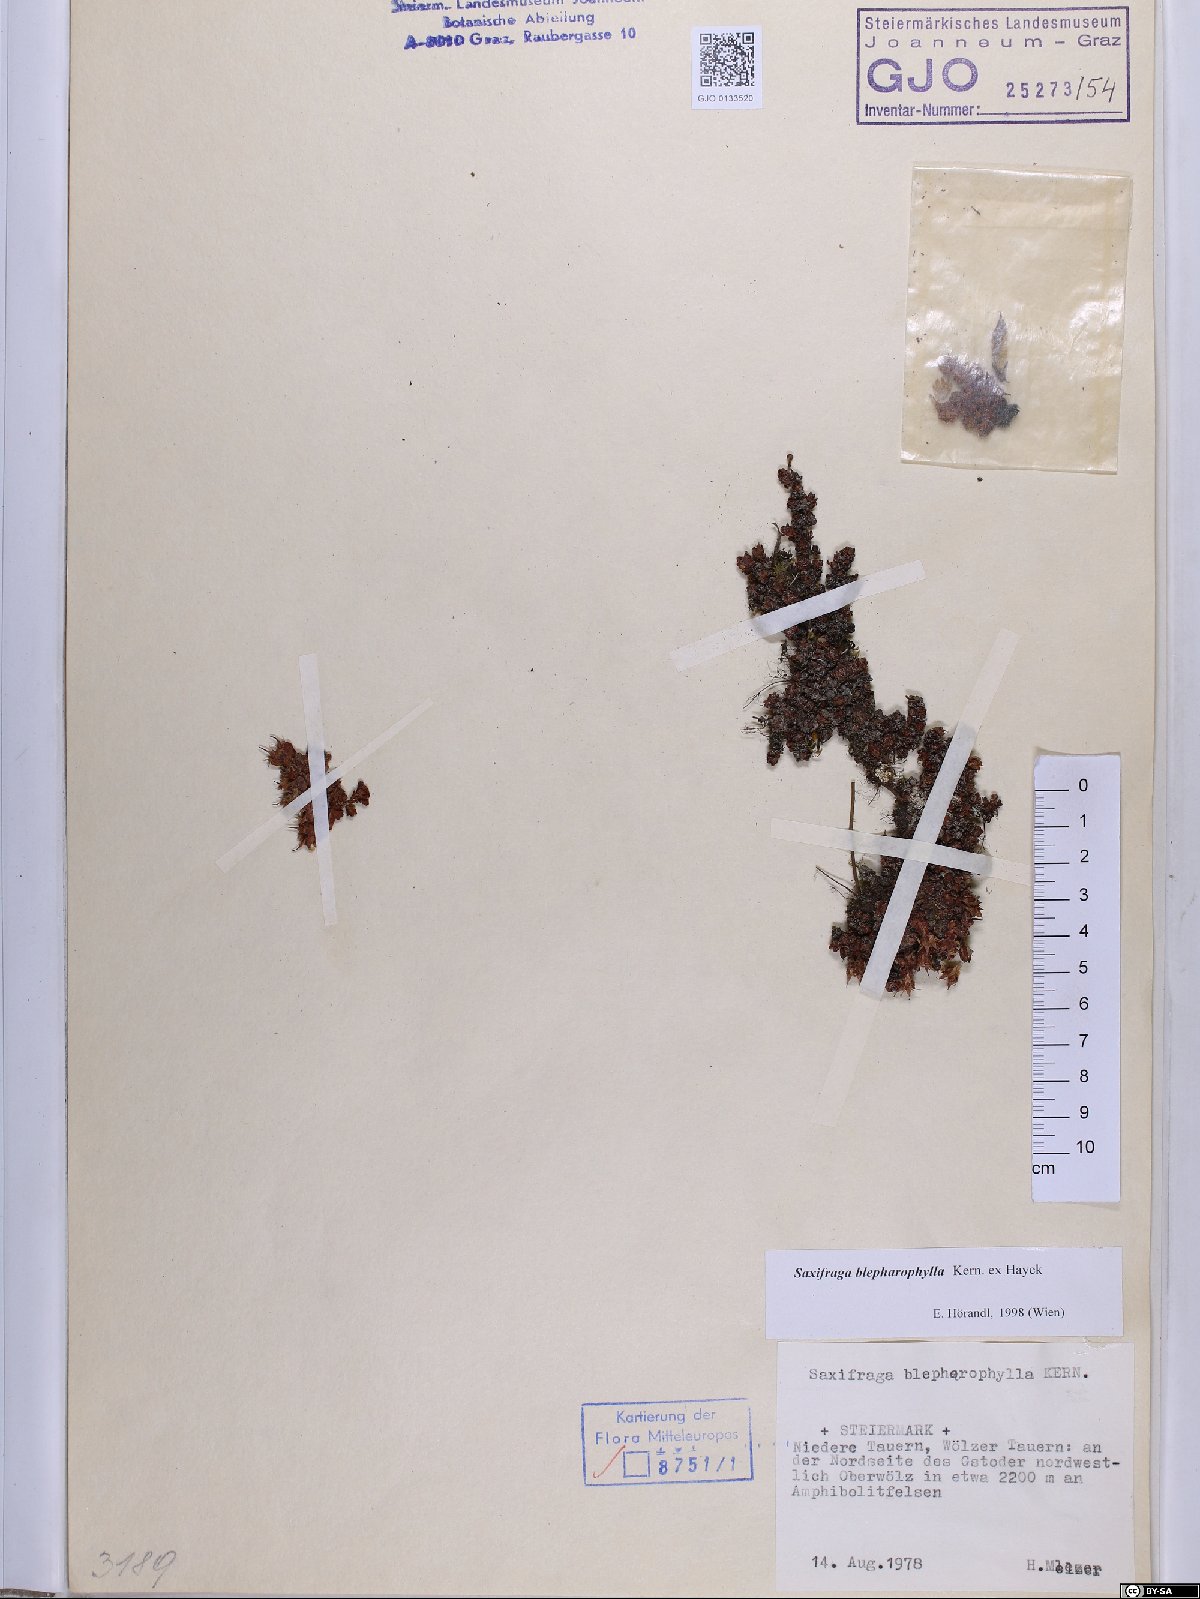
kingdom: Plantae
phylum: Tracheophyta
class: Magnoliopsida
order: Saxifragales
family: Saxifragaceae
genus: Saxifraga
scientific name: Saxifraga oppositifolia
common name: Purple saxifrage
